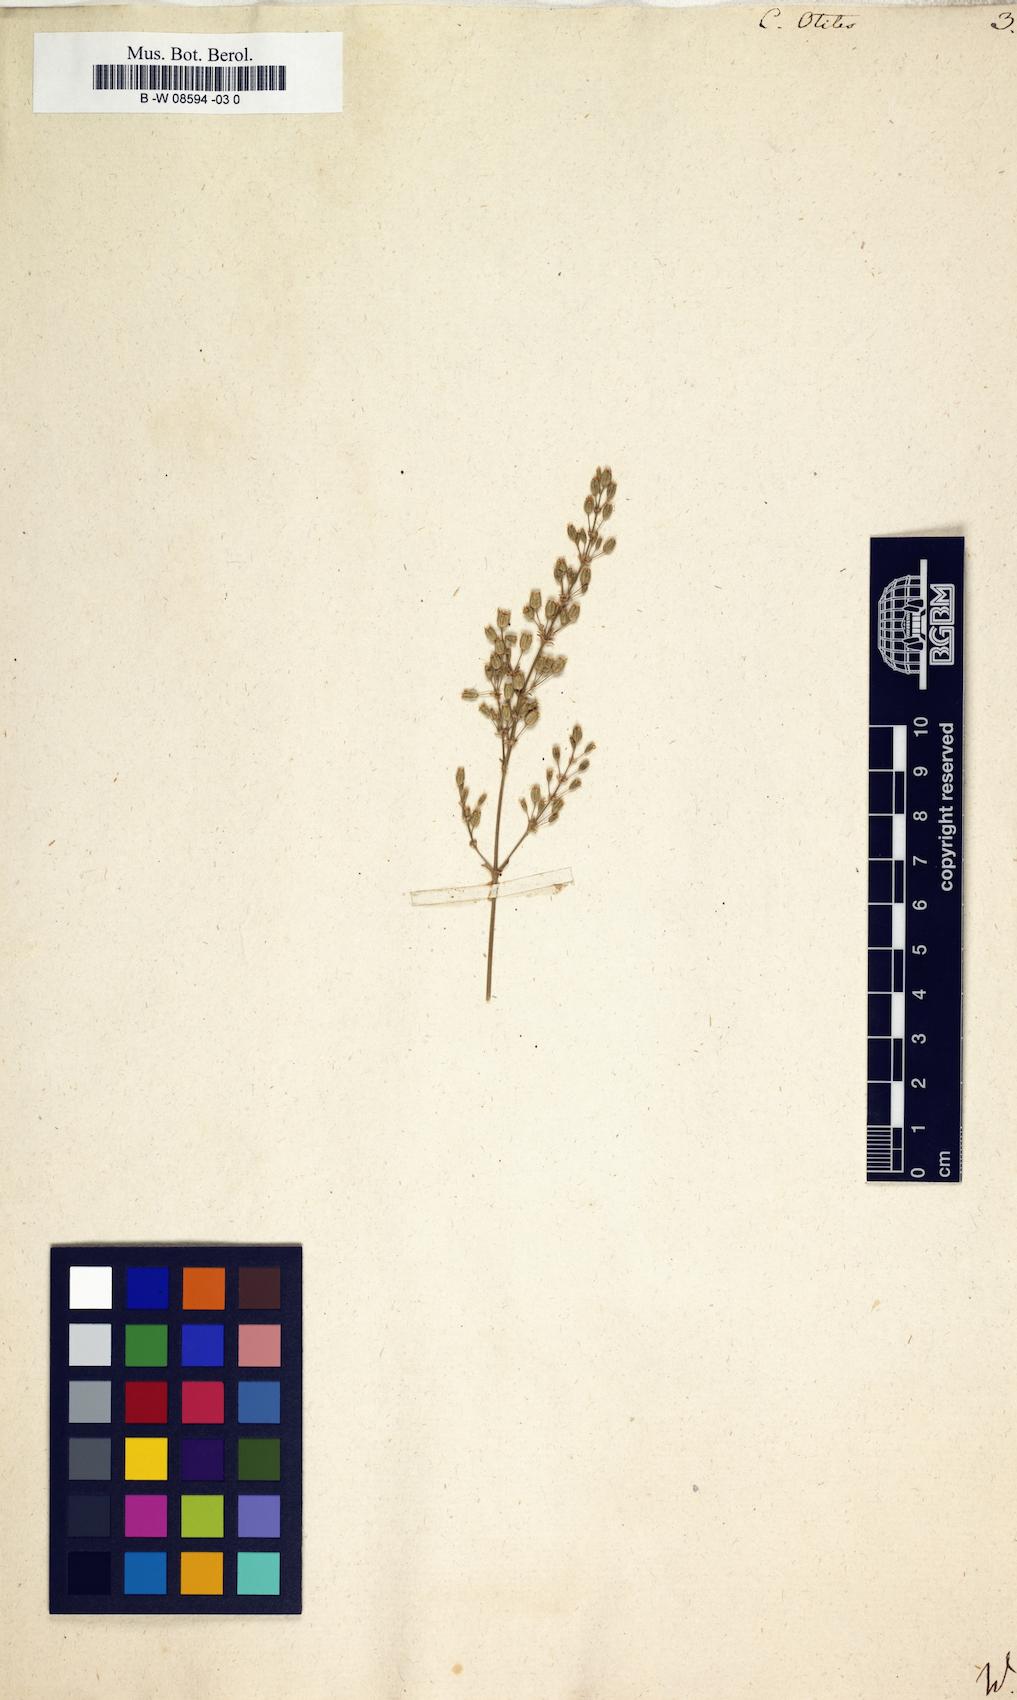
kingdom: Plantae
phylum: Tracheophyta
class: Magnoliopsida
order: Caryophyllales
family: Caryophyllaceae
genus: Silene
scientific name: Silene otites
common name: Spanish catchfly
